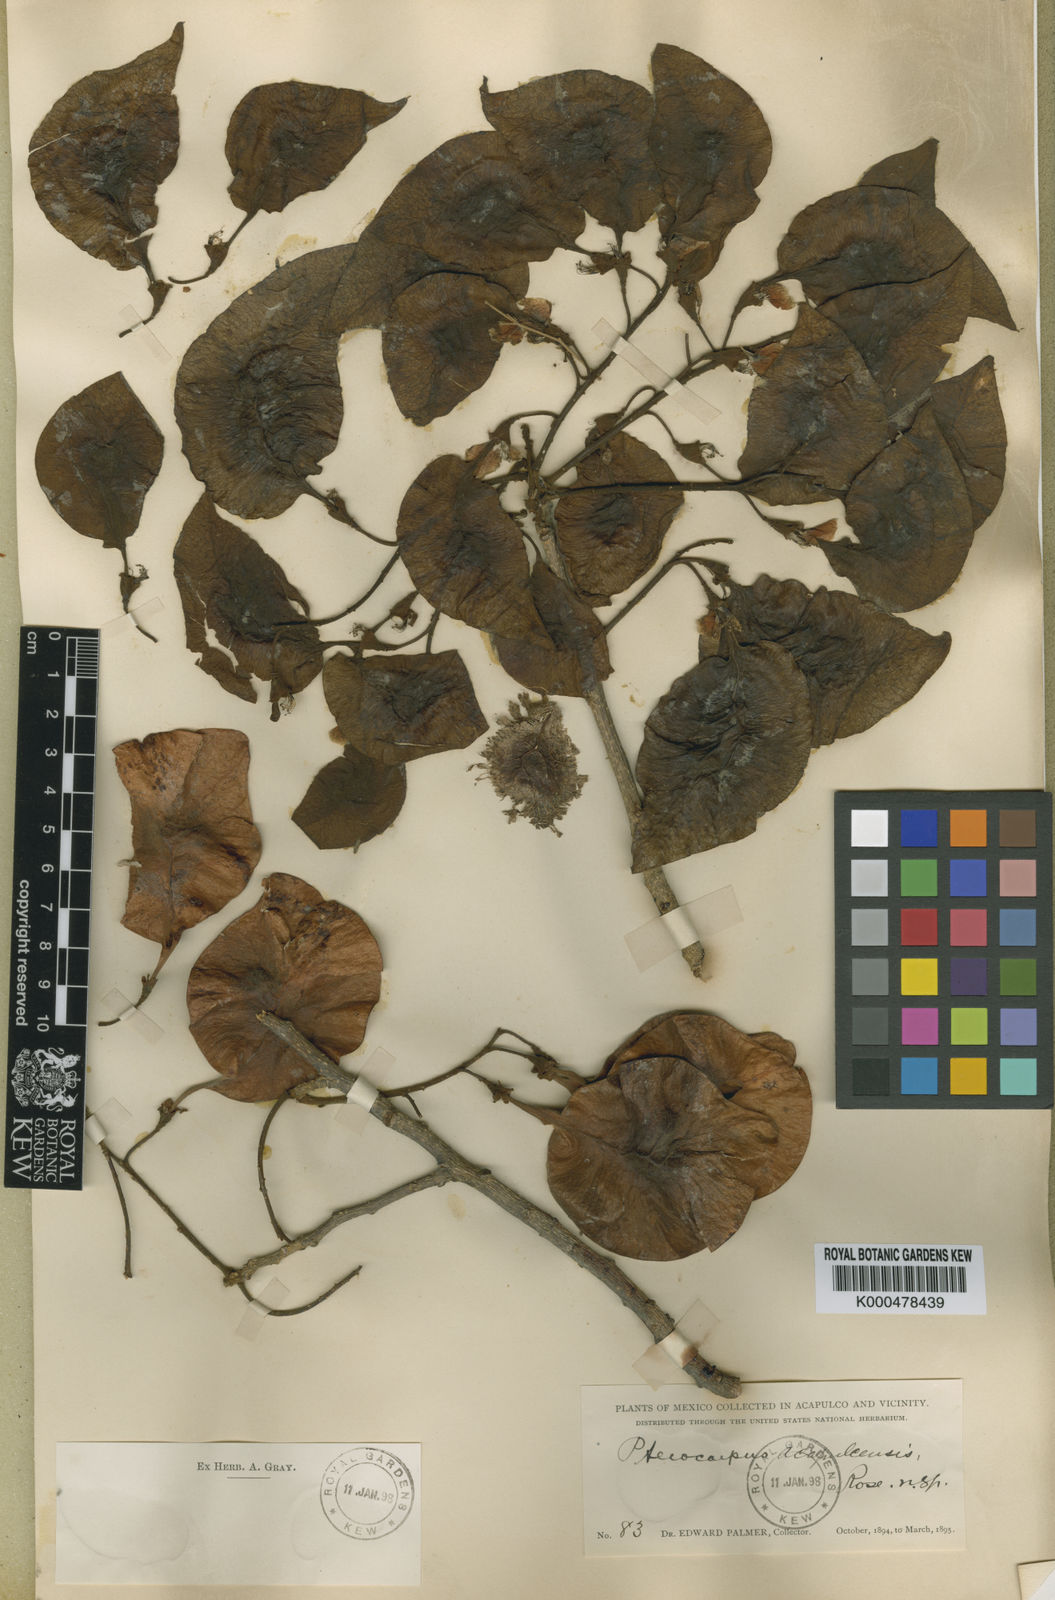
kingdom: Plantae
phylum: Tracheophyta
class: Magnoliopsida
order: Fabales
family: Fabaceae
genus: Pterocarpus
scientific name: Pterocarpus acapulcensis
